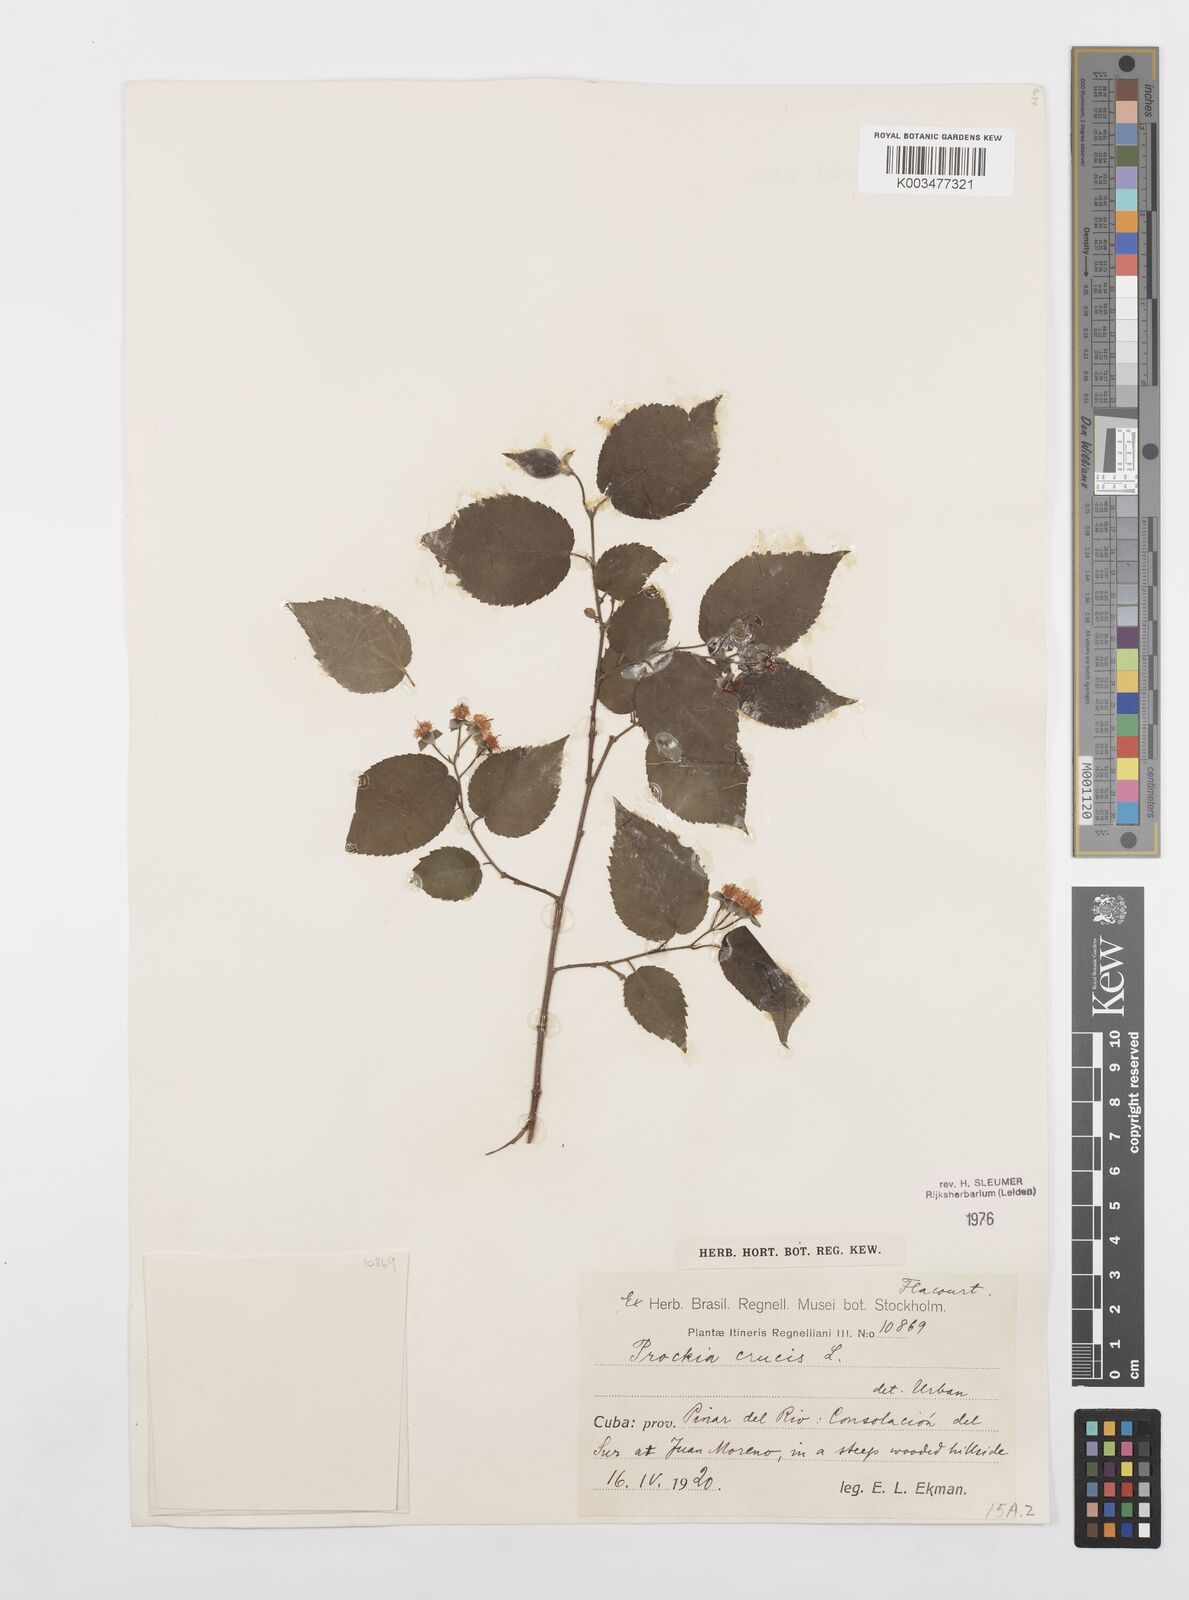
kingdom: Plantae
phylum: Tracheophyta
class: Magnoliopsida
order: Malpighiales
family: Salicaceae
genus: Prockia
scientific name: Prockia crucis
